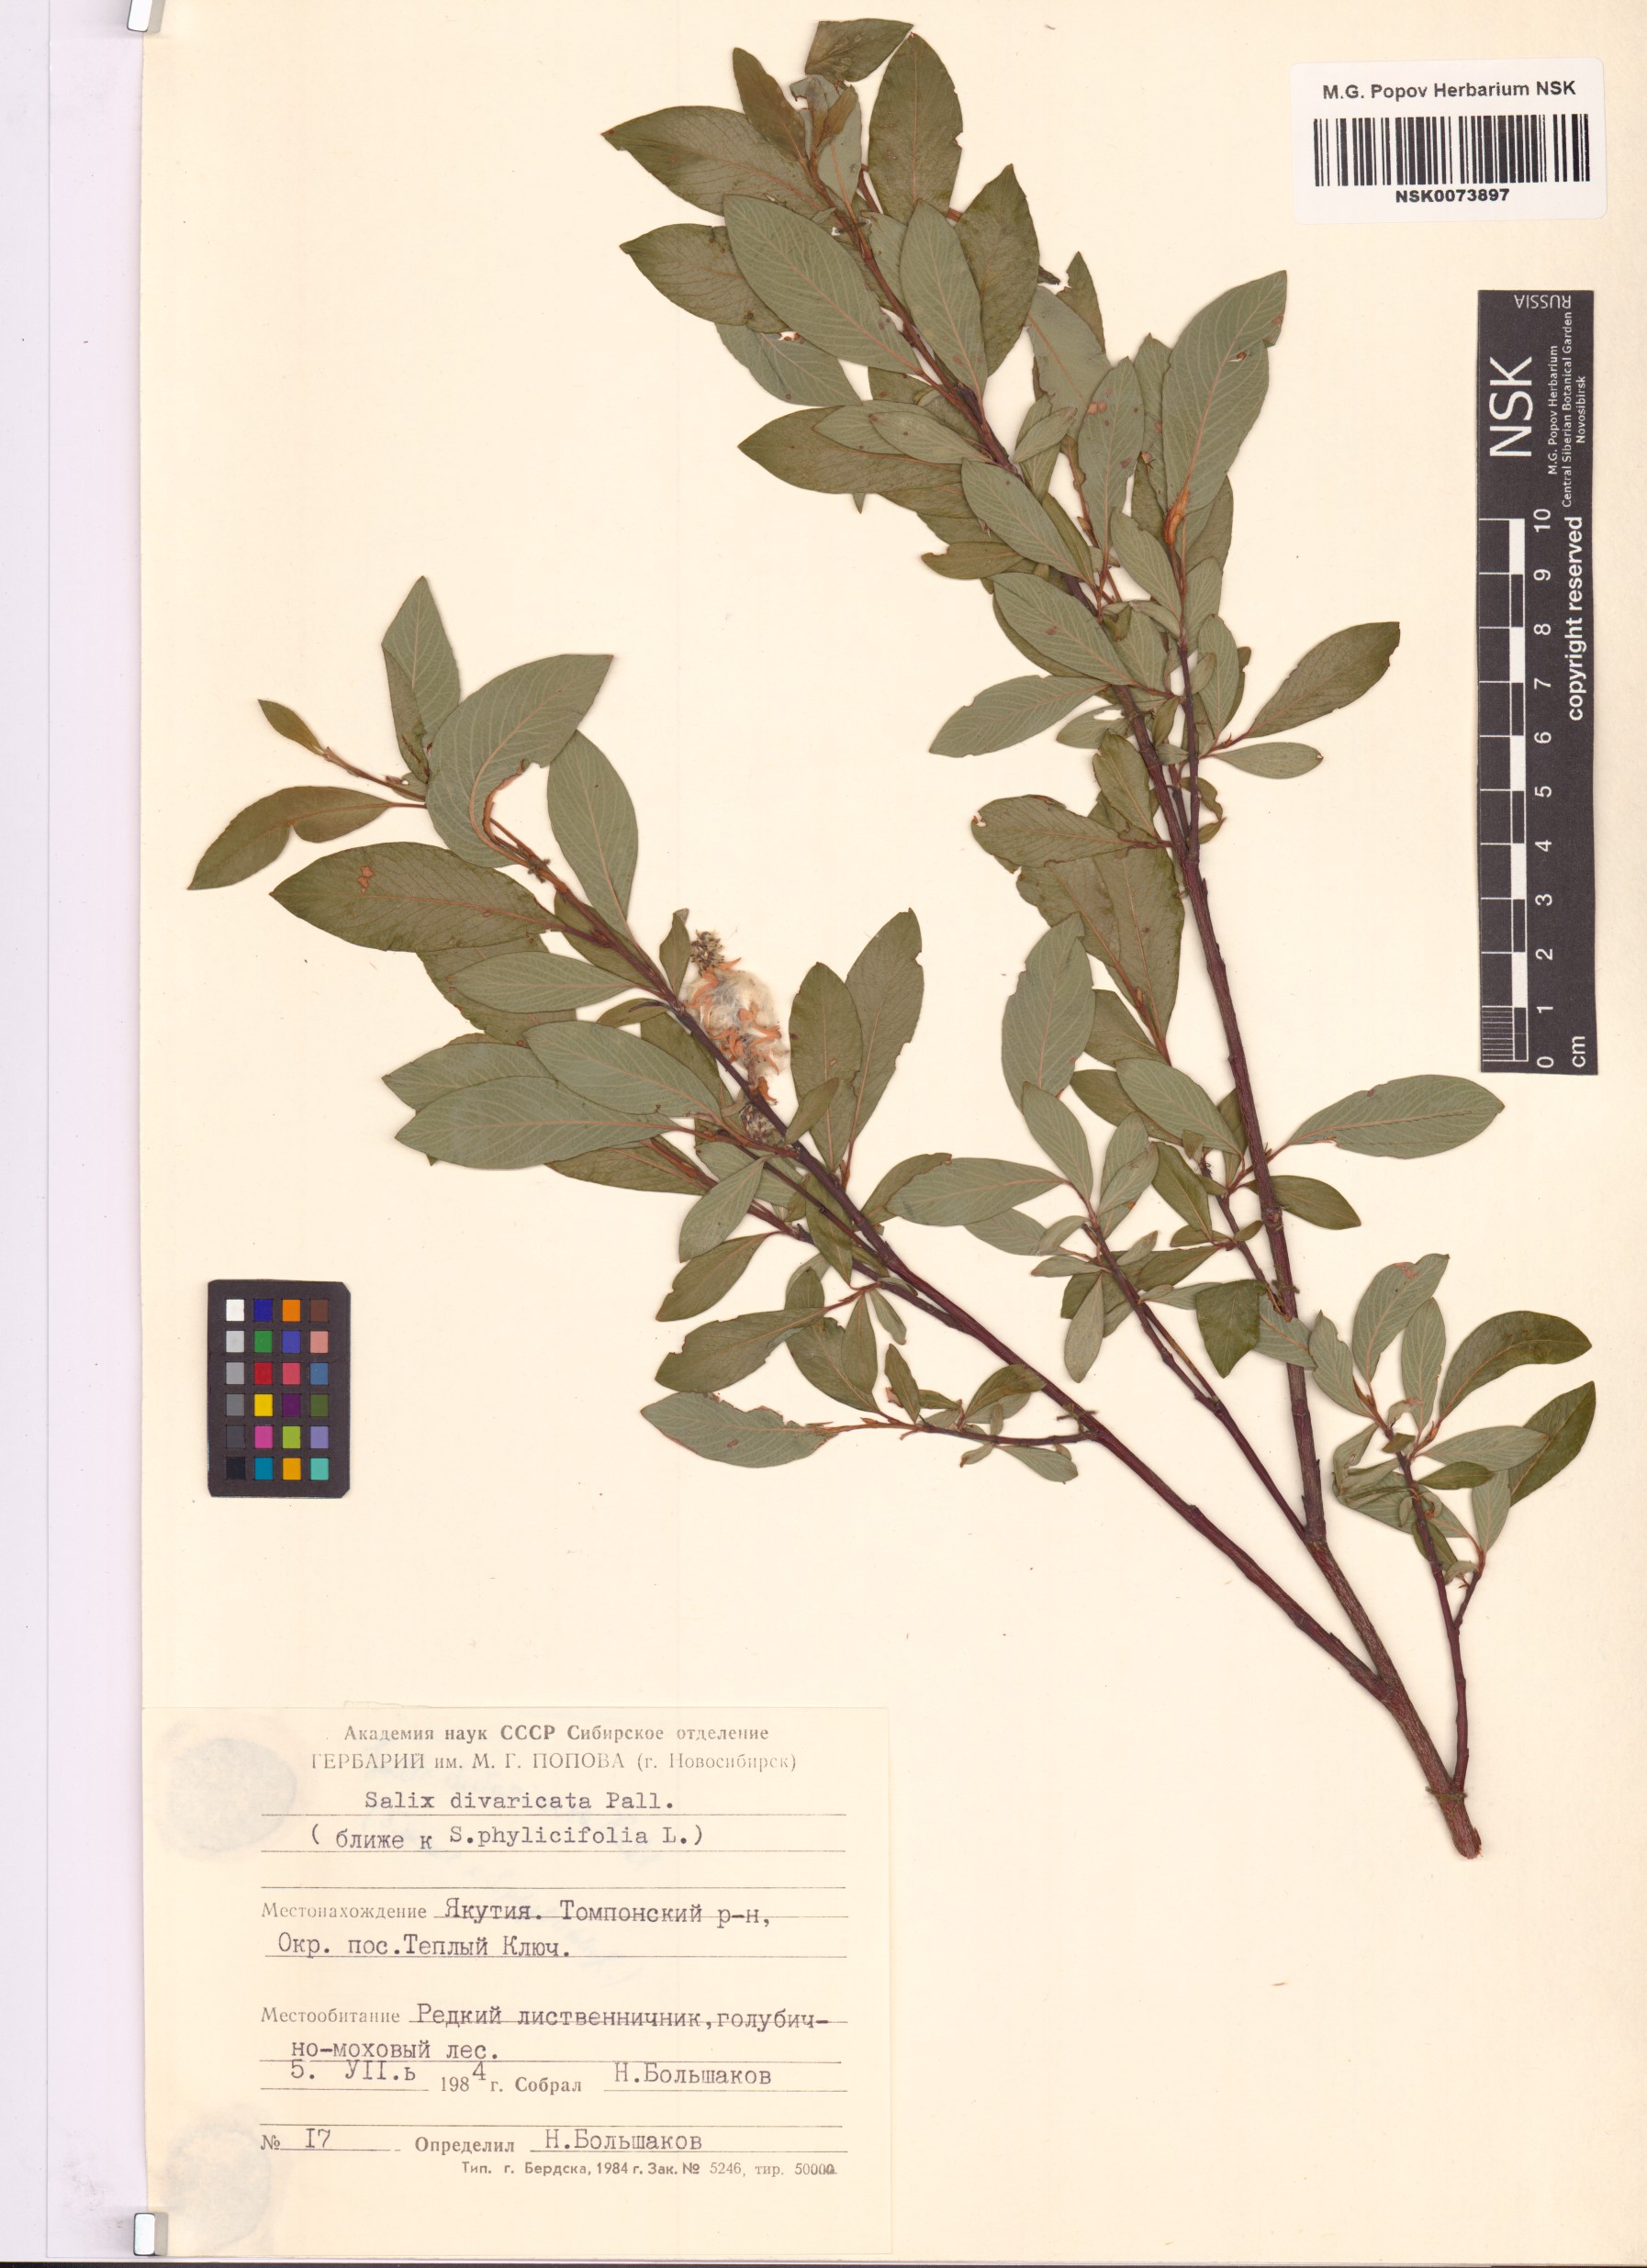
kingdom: Plantae
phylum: Tracheophyta
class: Magnoliopsida
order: Malpighiales
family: Salicaceae
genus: Salix
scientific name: Salix divaricata
